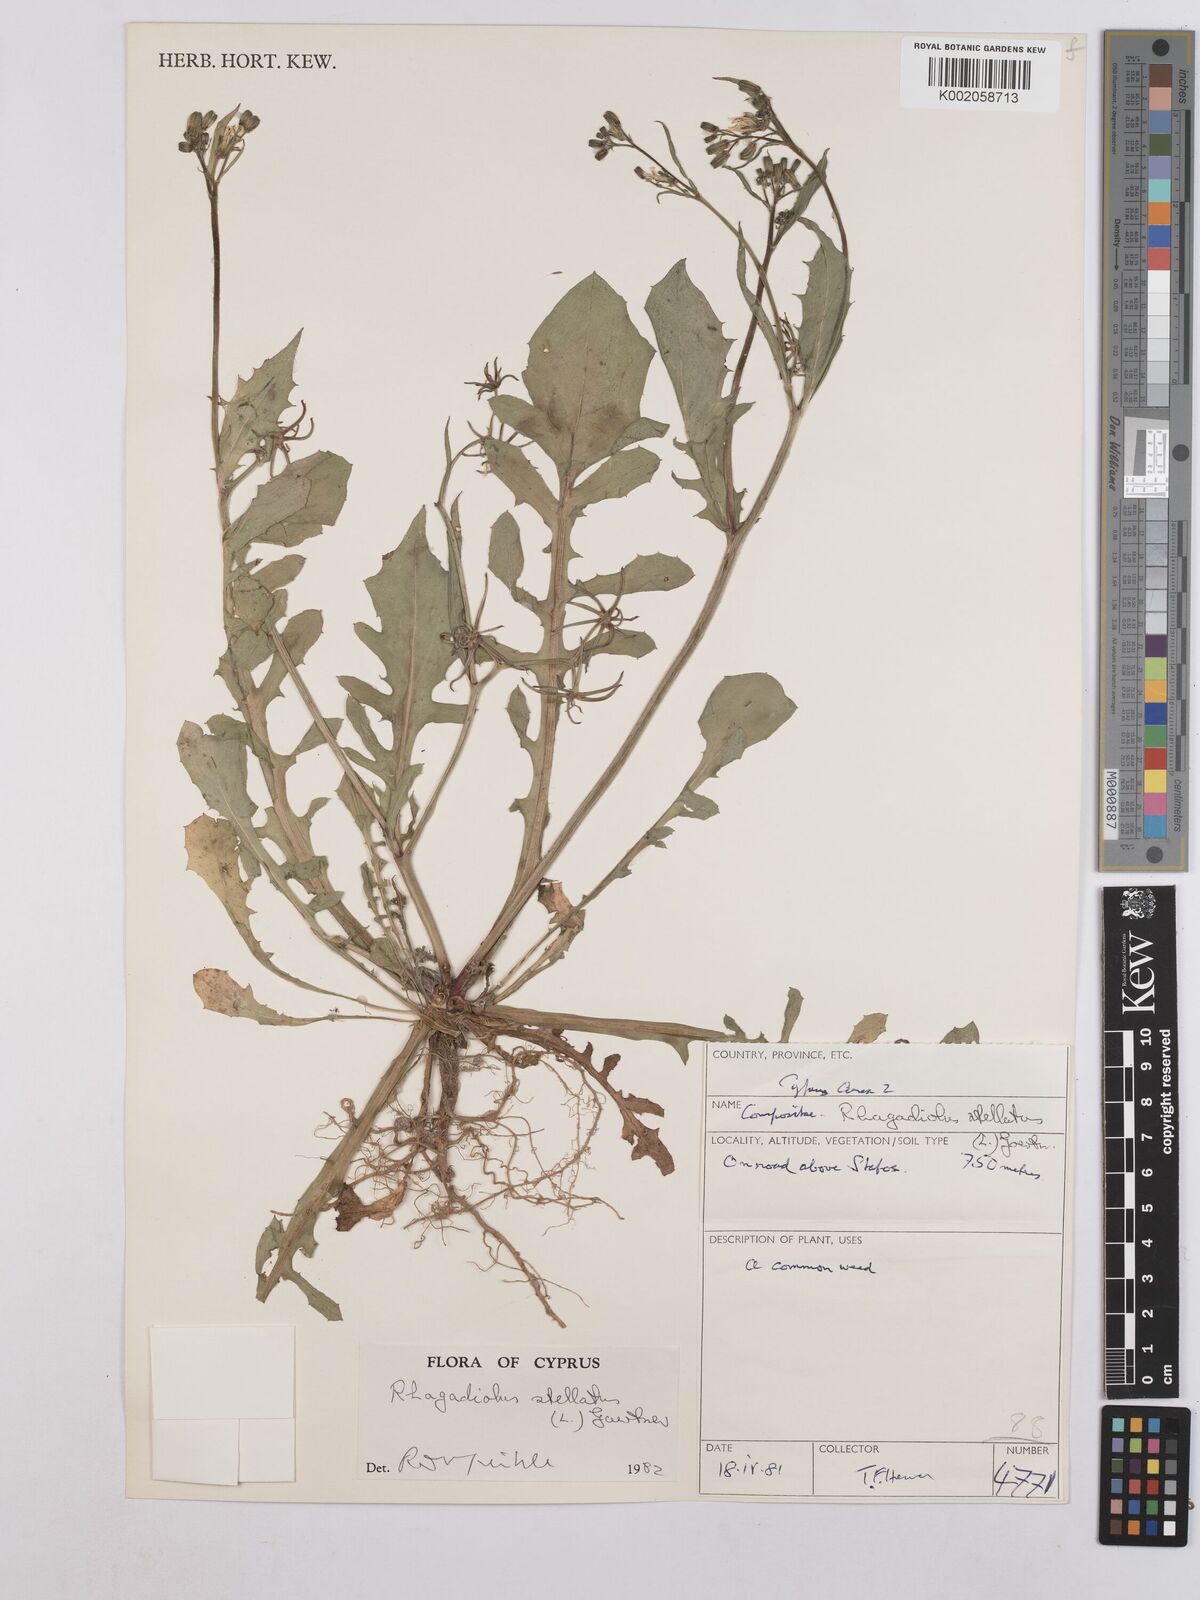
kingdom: Plantae
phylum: Tracheophyta
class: Magnoliopsida
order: Asterales
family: Asteraceae
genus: Rhagadiolus
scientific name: Rhagadiolus stellatus
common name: Star hawkbit
